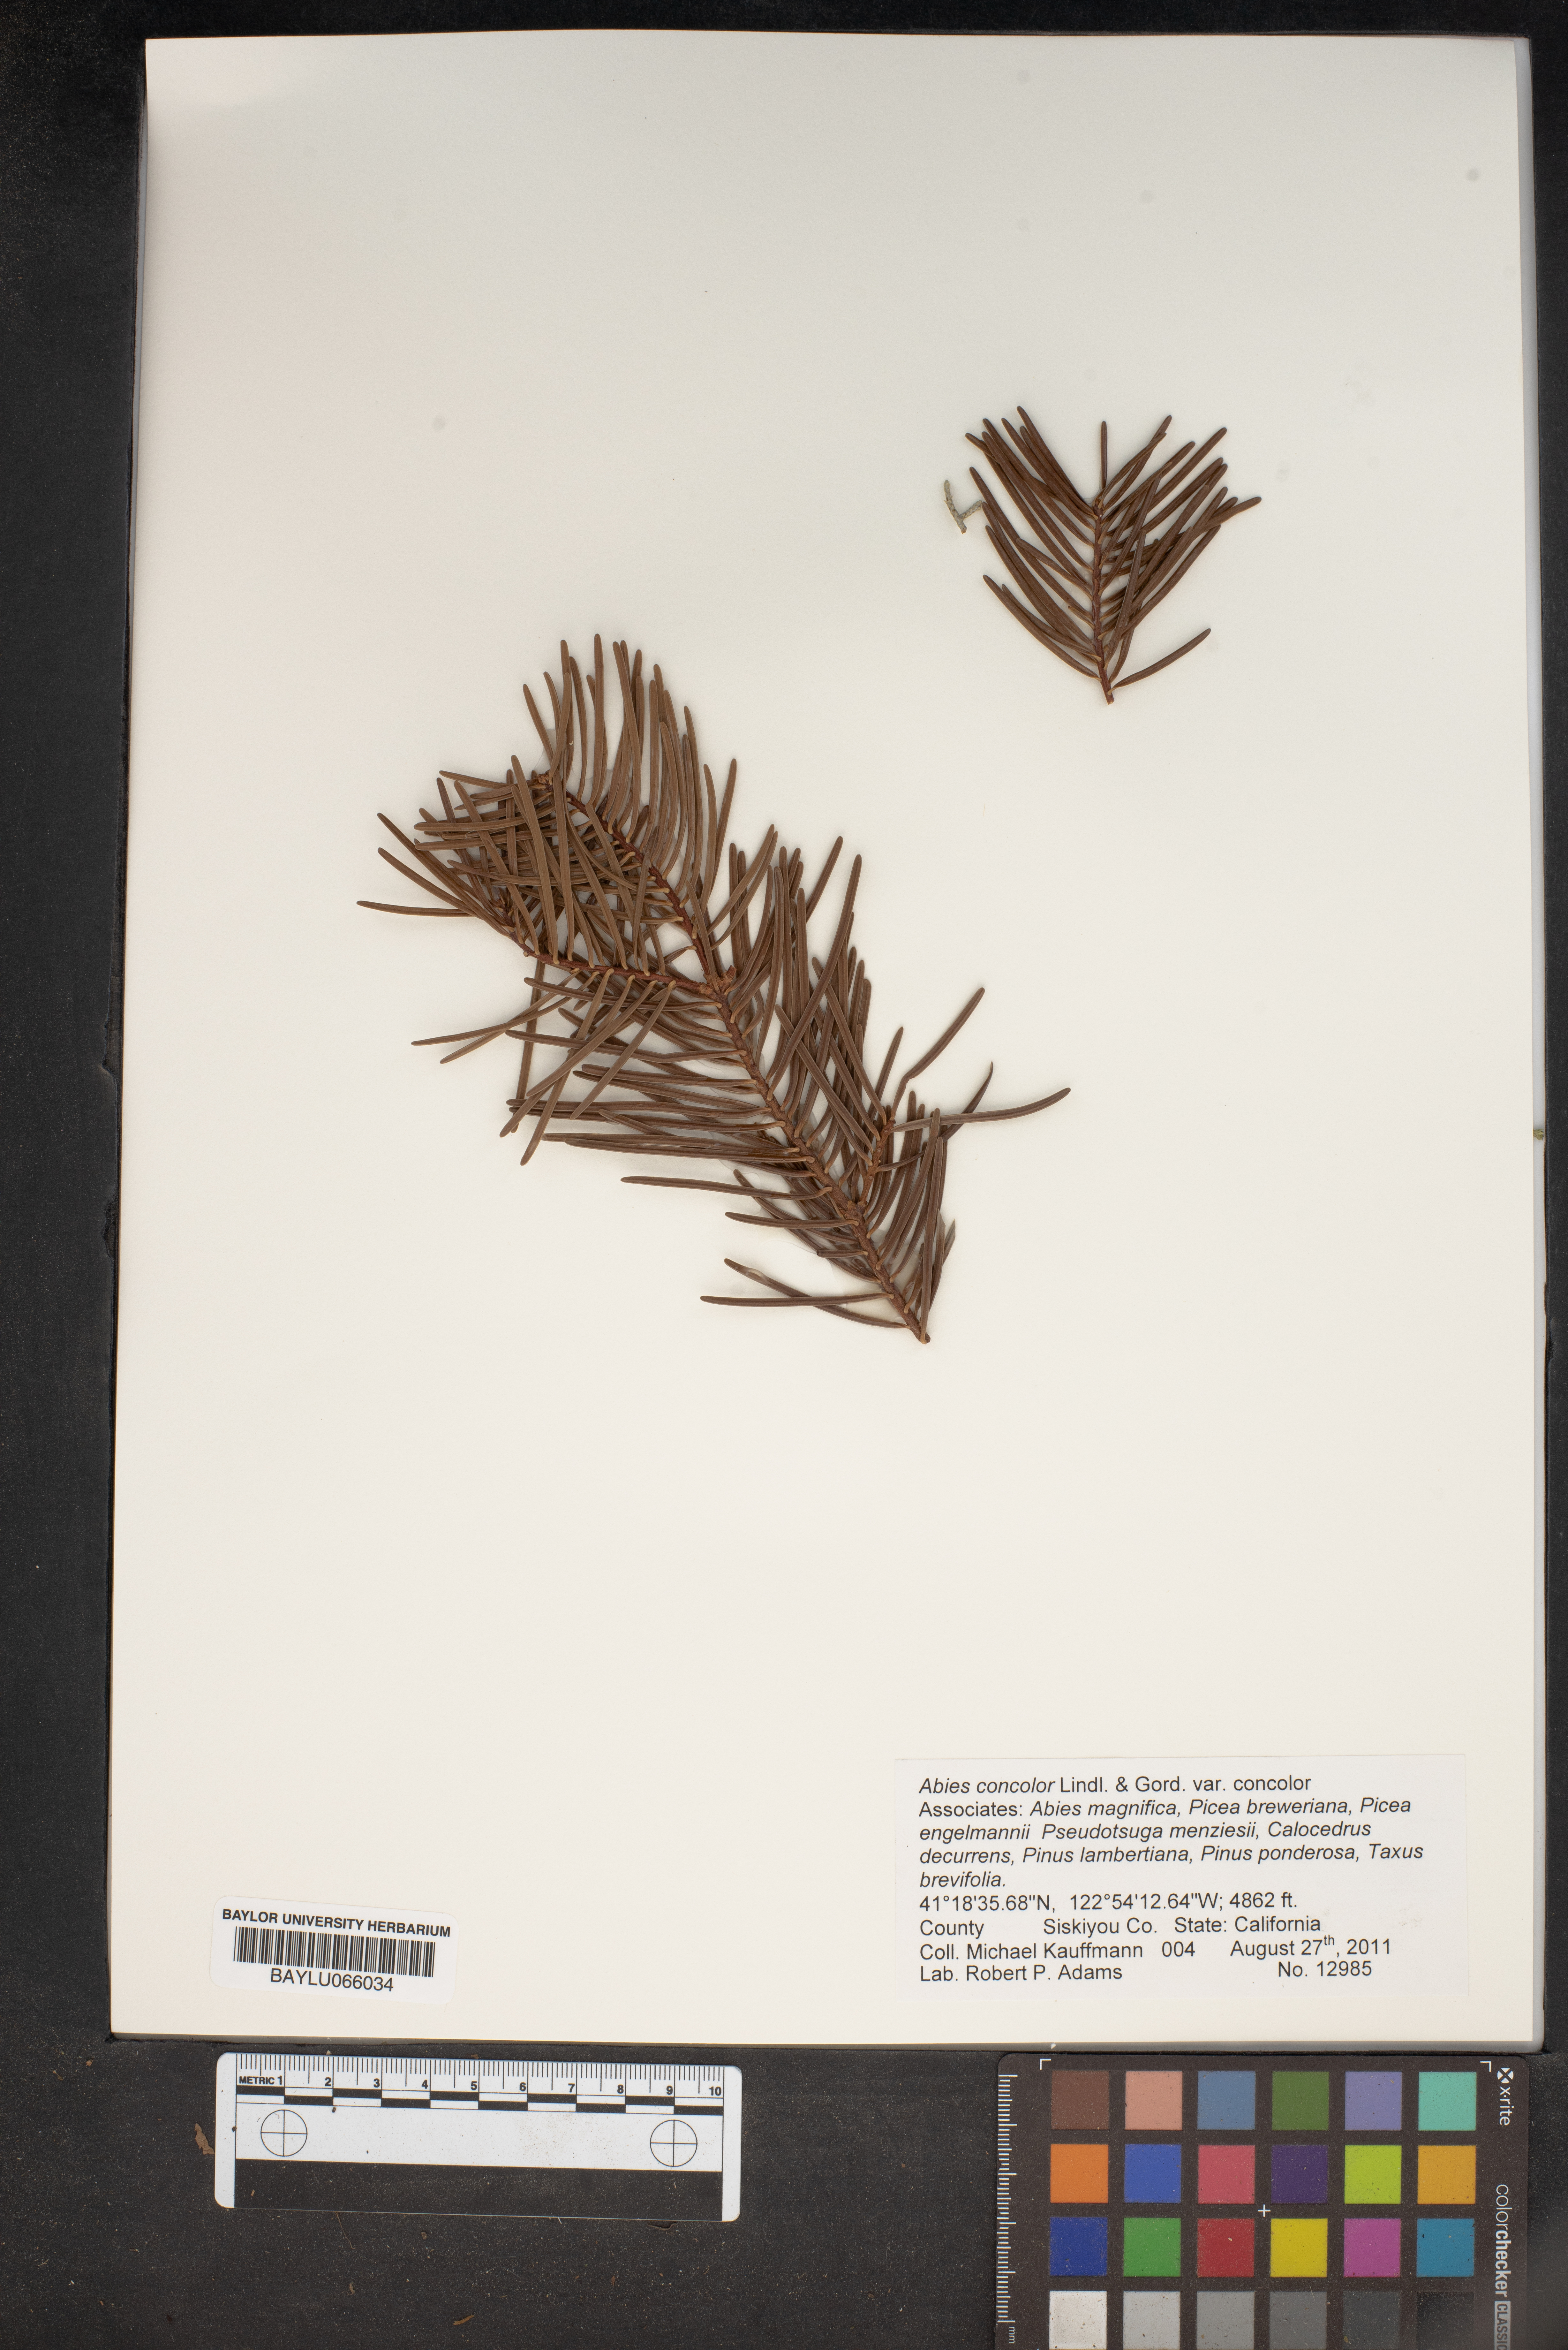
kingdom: Plantae
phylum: Tracheophyta
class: Pinopsida
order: Pinales
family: Pinaceae
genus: Abies
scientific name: Abies concolor
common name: Colorado fir
